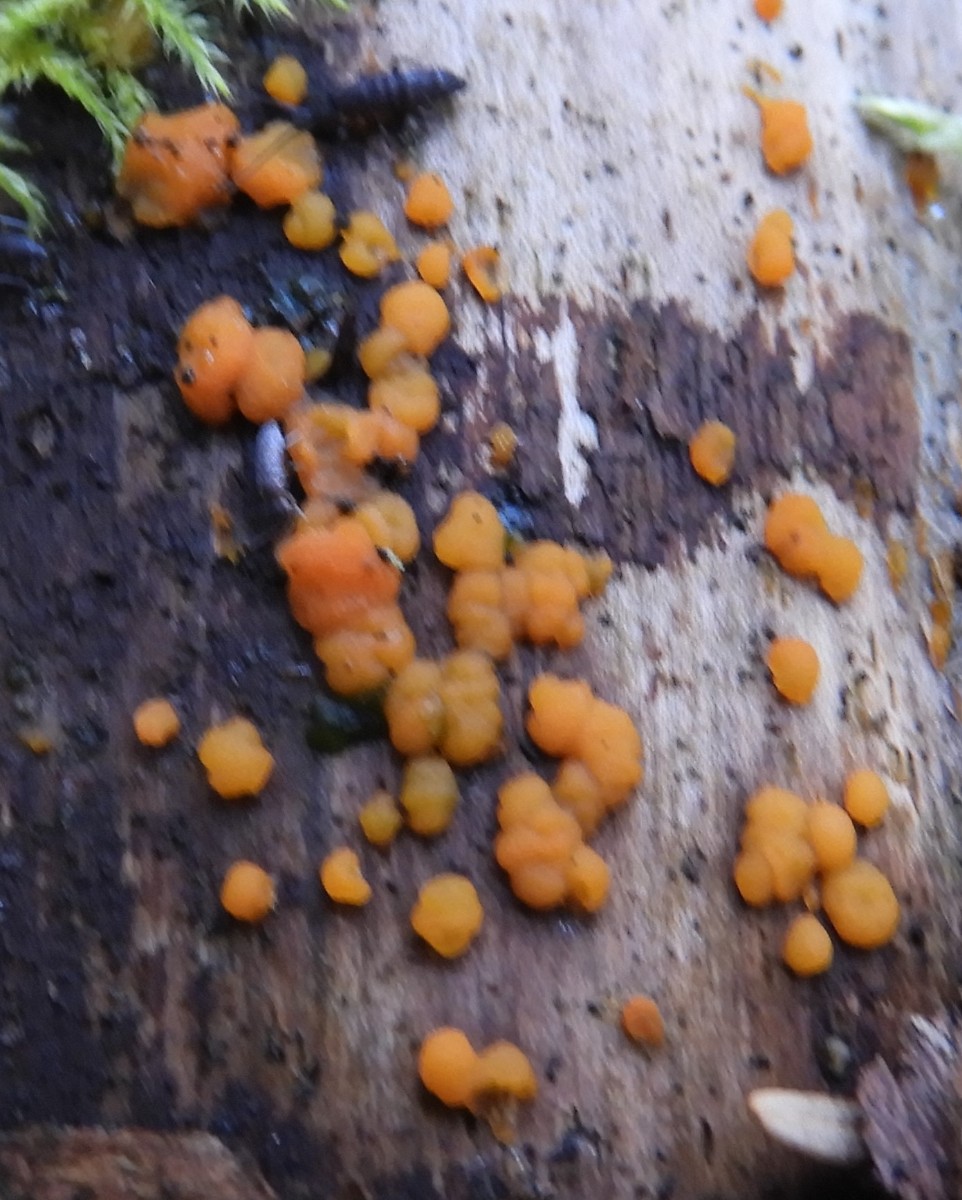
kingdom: Fungi
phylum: Basidiomycota
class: Dacrymycetes
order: Dacrymycetales
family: Dacrymycetaceae
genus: Dacrymyces
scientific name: Dacrymyces stillatus
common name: almindelig tåresvamp
